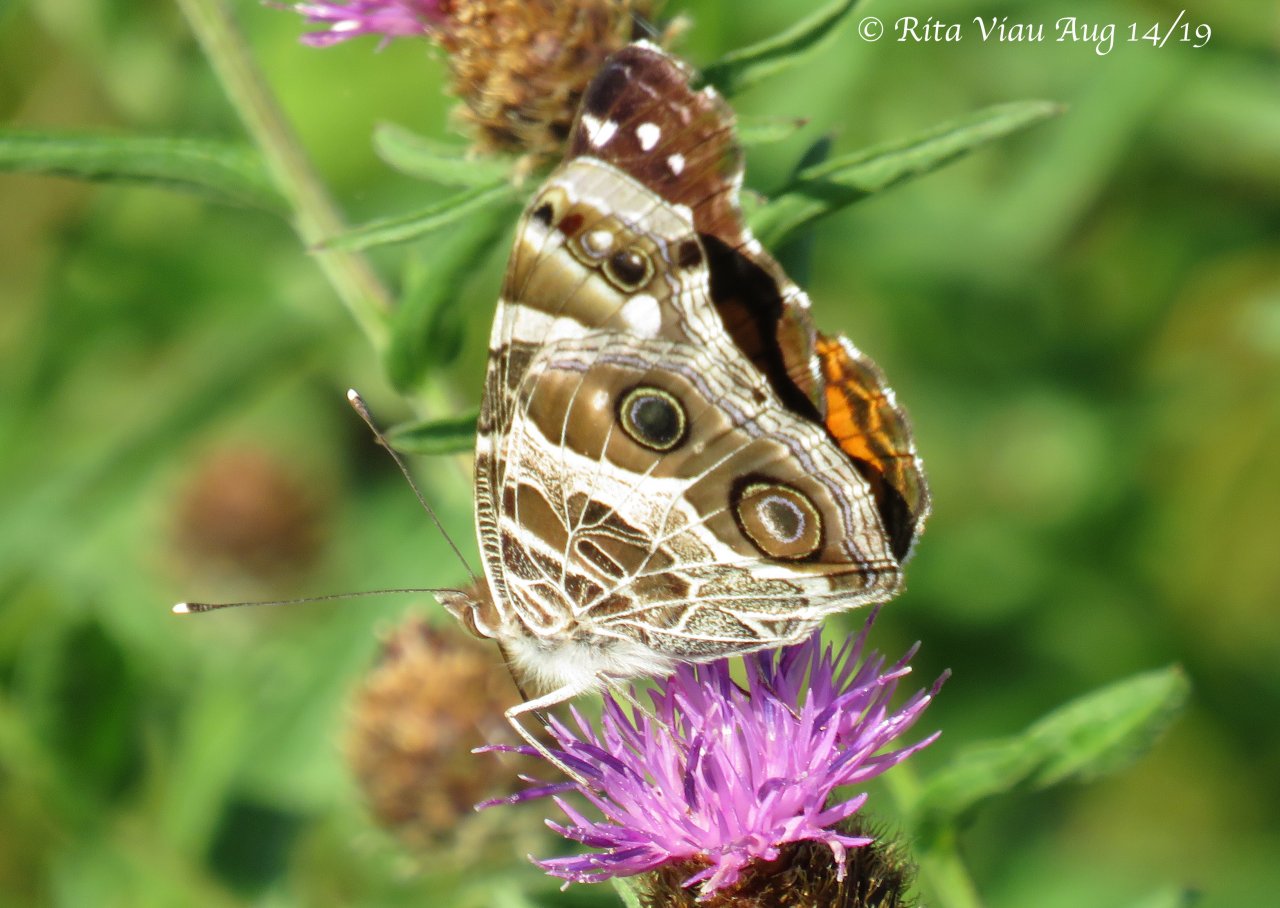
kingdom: Animalia
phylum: Arthropoda
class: Insecta
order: Lepidoptera
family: Nymphalidae
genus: Vanessa
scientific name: Vanessa virginiensis
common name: American Lady
